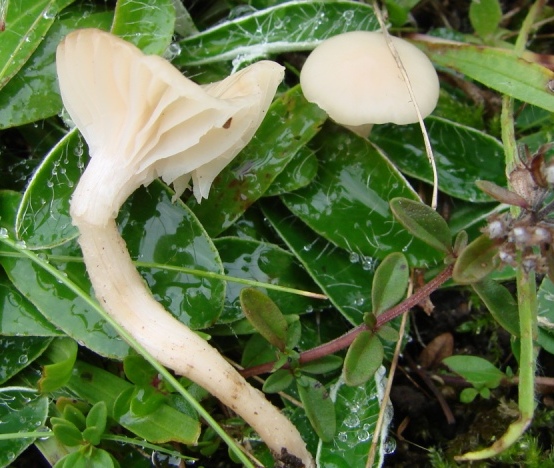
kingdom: Fungi
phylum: Basidiomycota
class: Agaricomycetes
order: Agaricales
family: Hygrophoraceae
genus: Cuphophyllus
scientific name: Cuphophyllus virgineus
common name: snehvid vokshat
